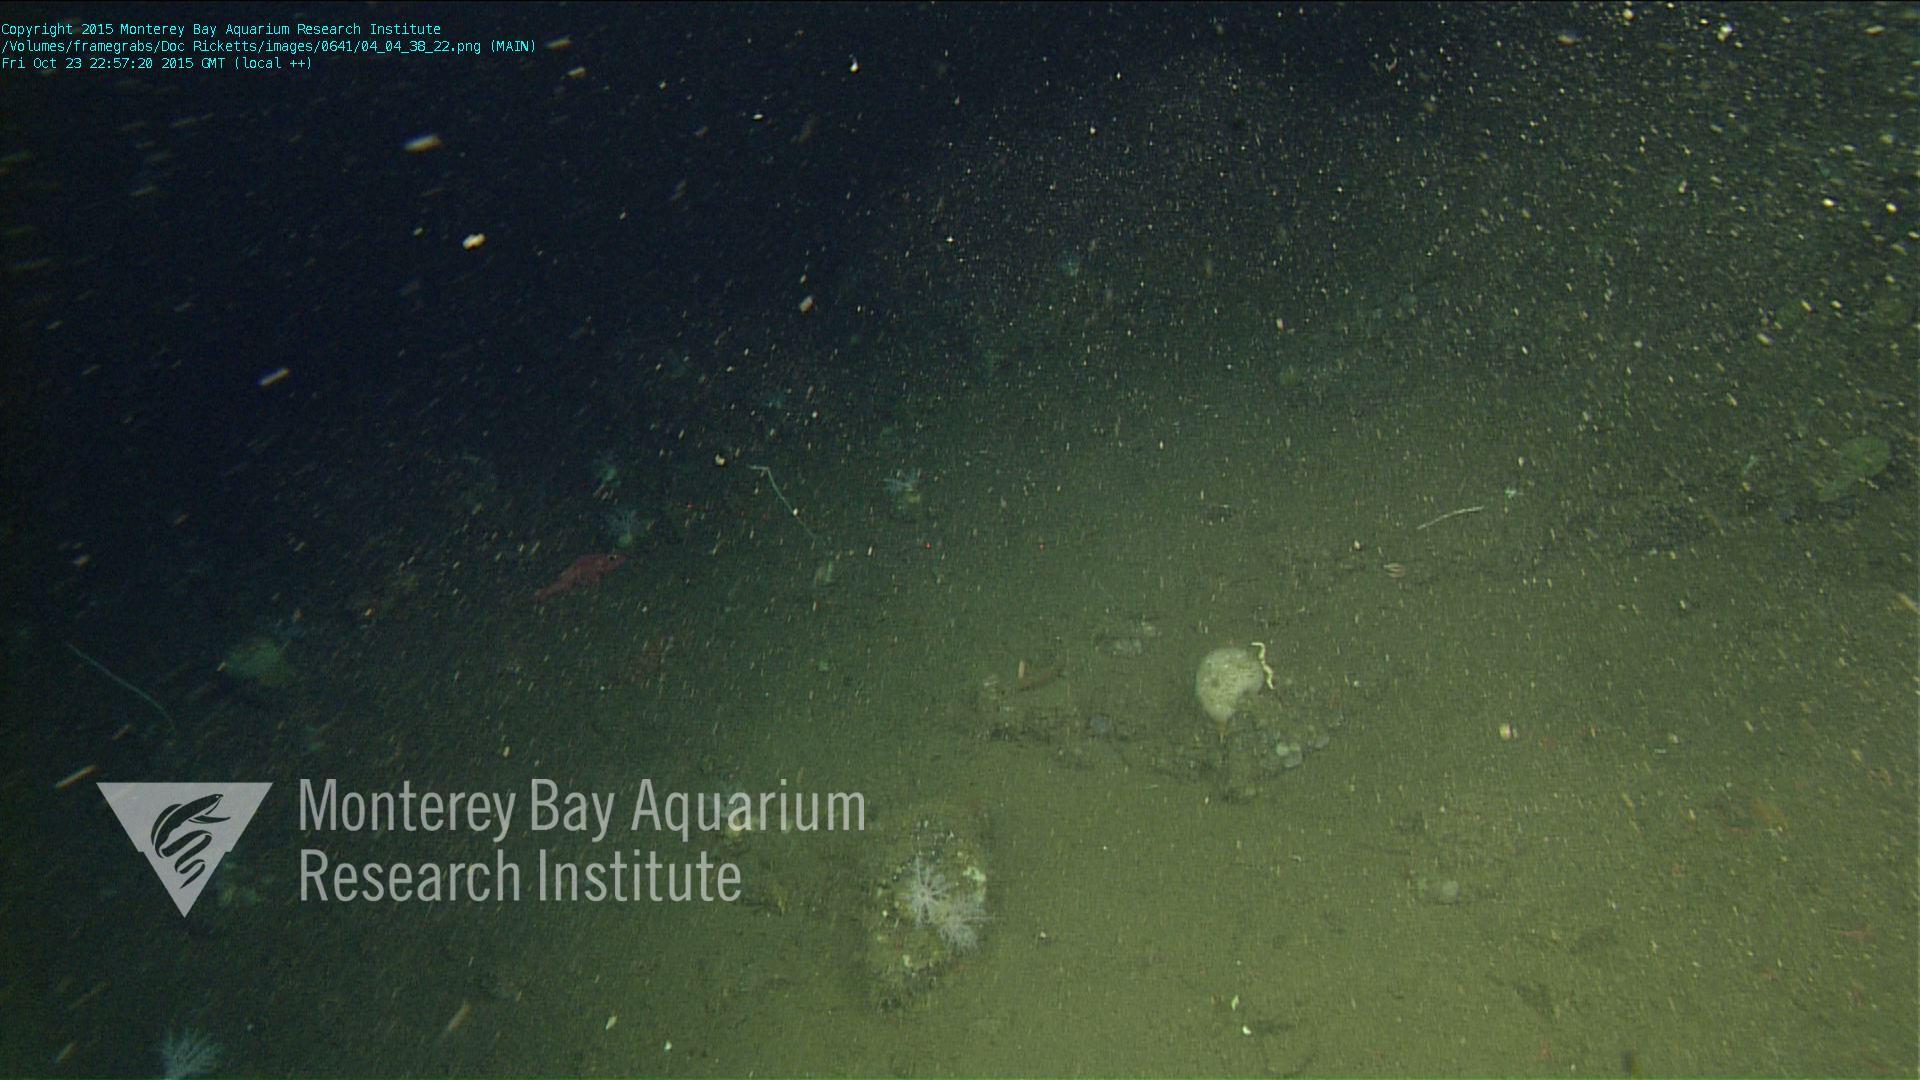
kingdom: Animalia
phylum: Cnidaria
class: Anthozoa
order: Scleralcyonacea
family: Keratoisididae
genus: Lepidisis
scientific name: Lepidisis
